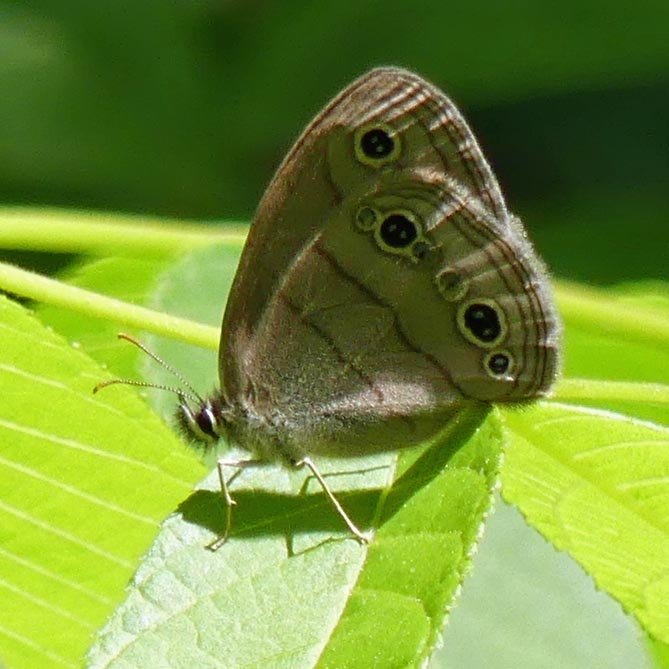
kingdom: Animalia
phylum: Arthropoda
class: Insecta
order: Lepidoptera
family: Nymphalidae
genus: Euptychia
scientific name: Euptychia cymela
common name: Little Wood Satyr
